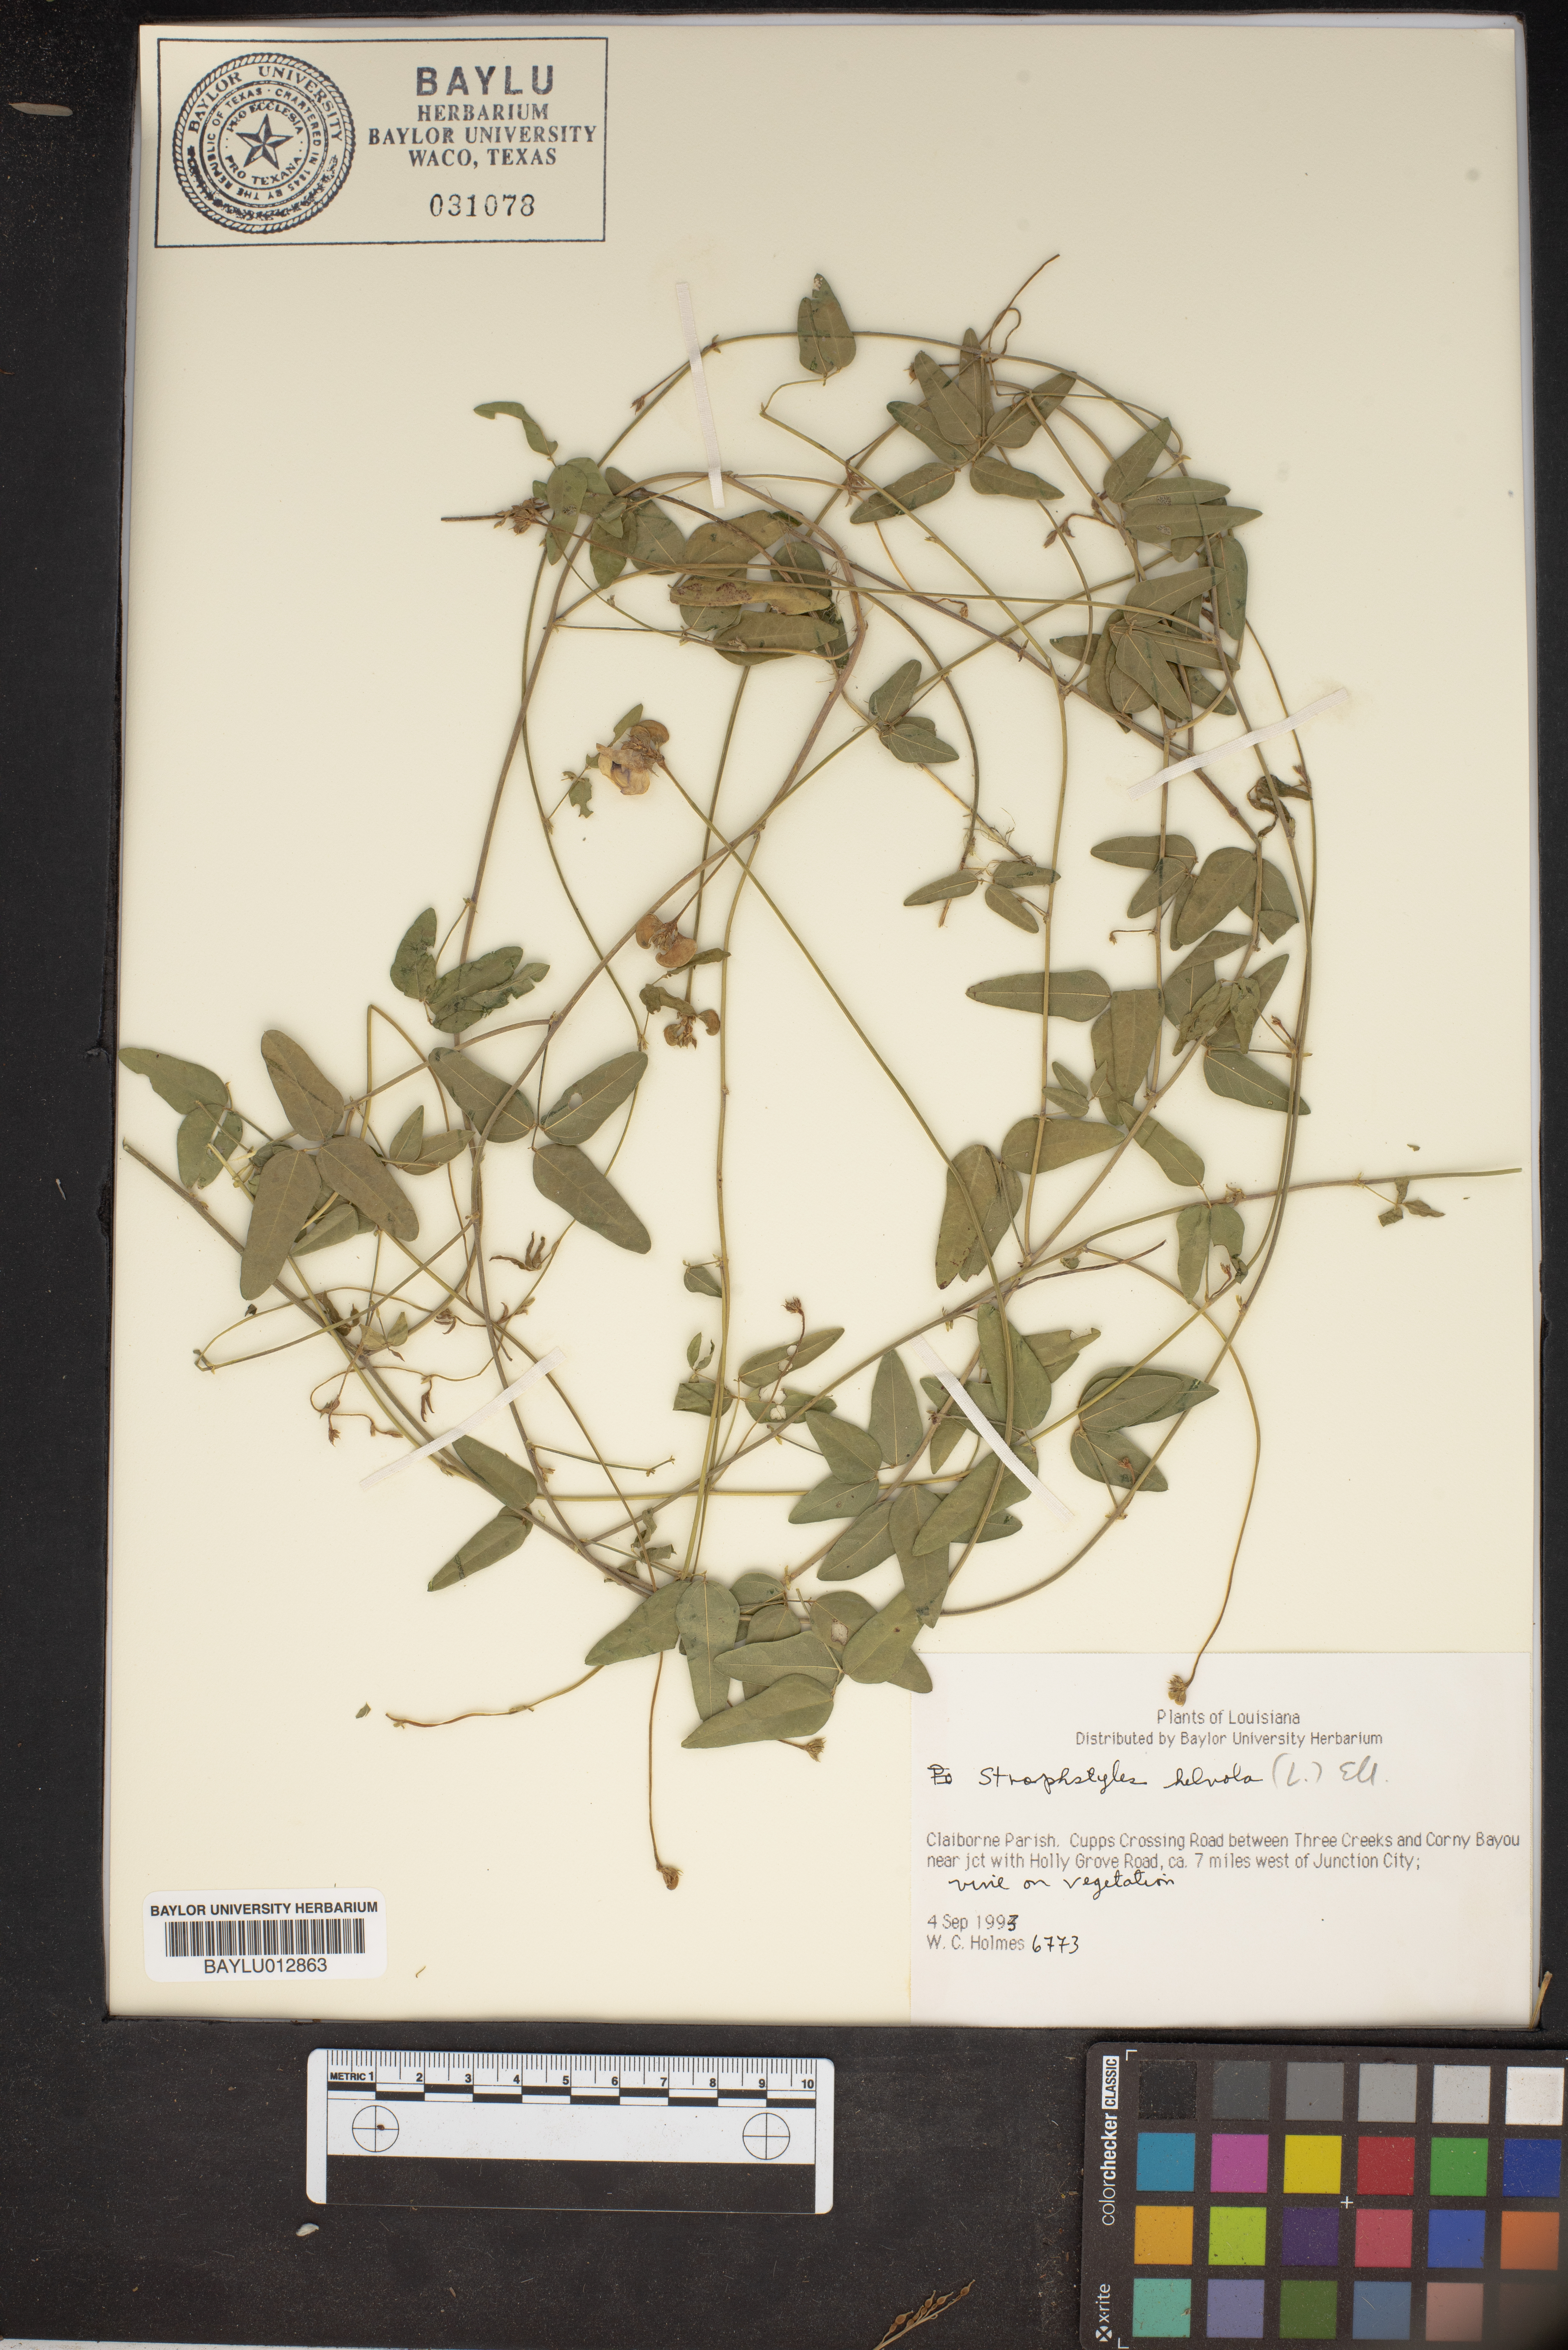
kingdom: Plantae
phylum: Tracheophyta
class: Magnoliopsida
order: Fabales
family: Fabaceae
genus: Strophostyles
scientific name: Strophostyles helvola
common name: Trailing wild bean
